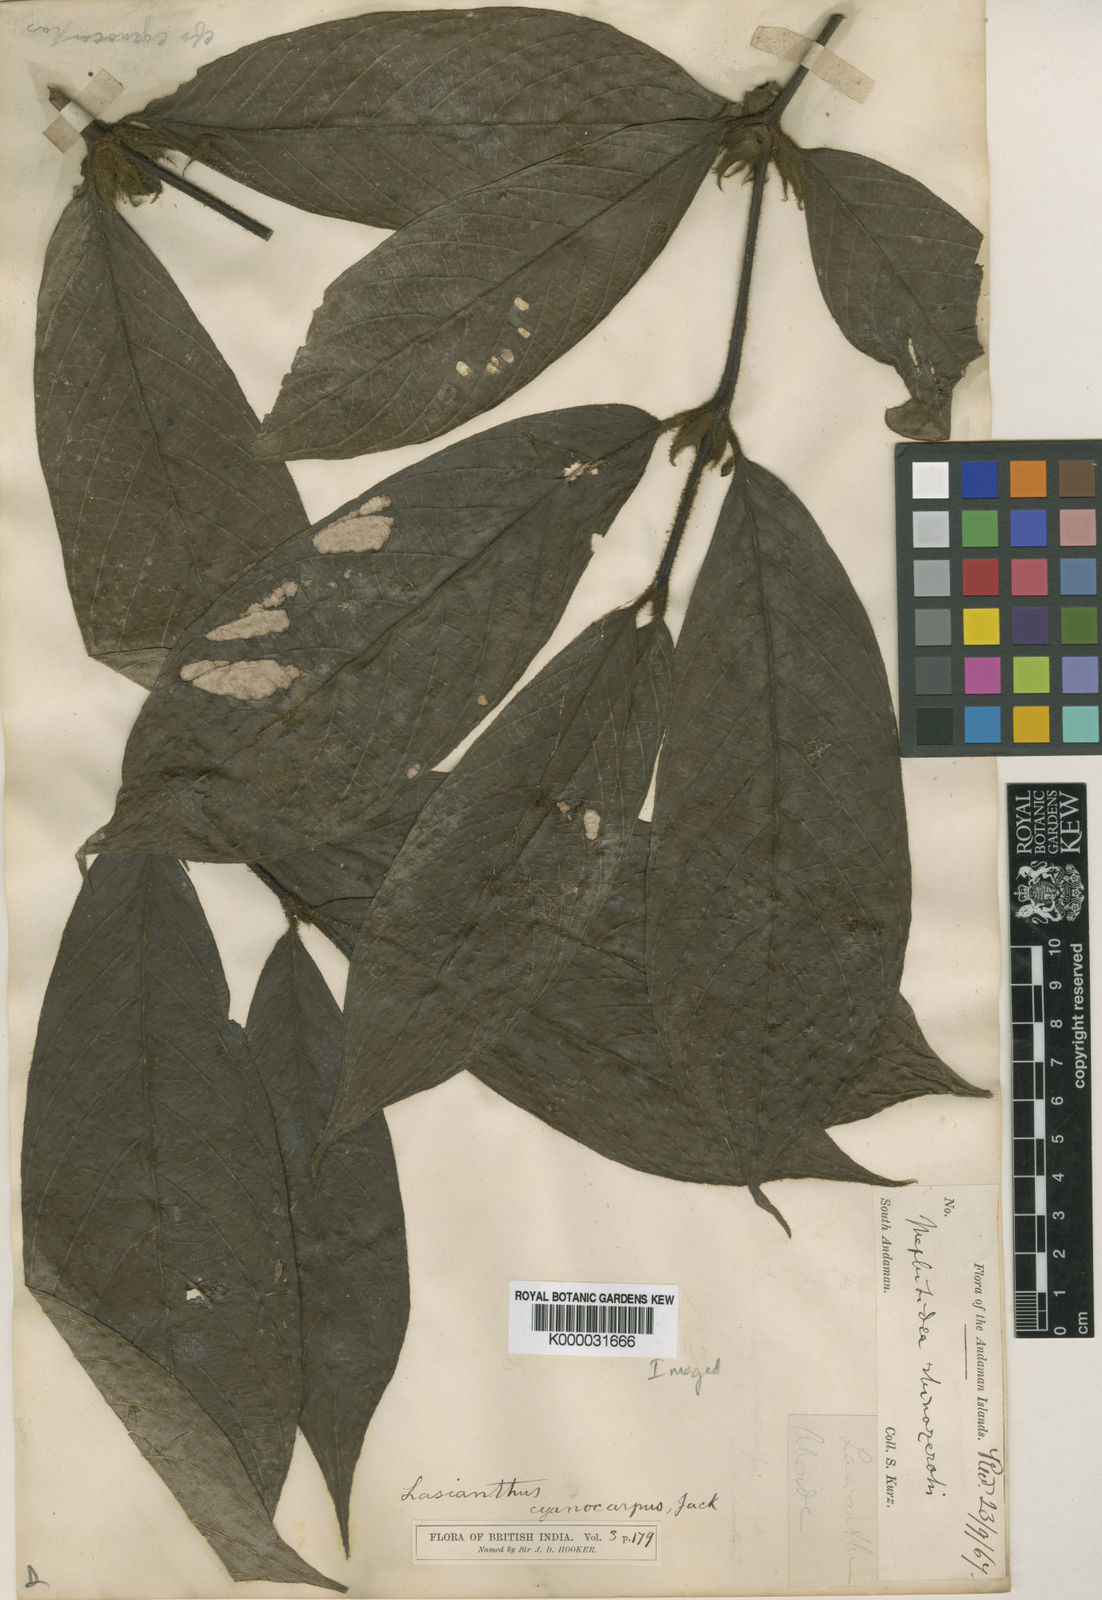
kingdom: Plantae
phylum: Tracheophyta
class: Magnoliopsida
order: Gentianales
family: Rubiaceae
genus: Lasianthus
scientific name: Lasianthus cyanocarpus
